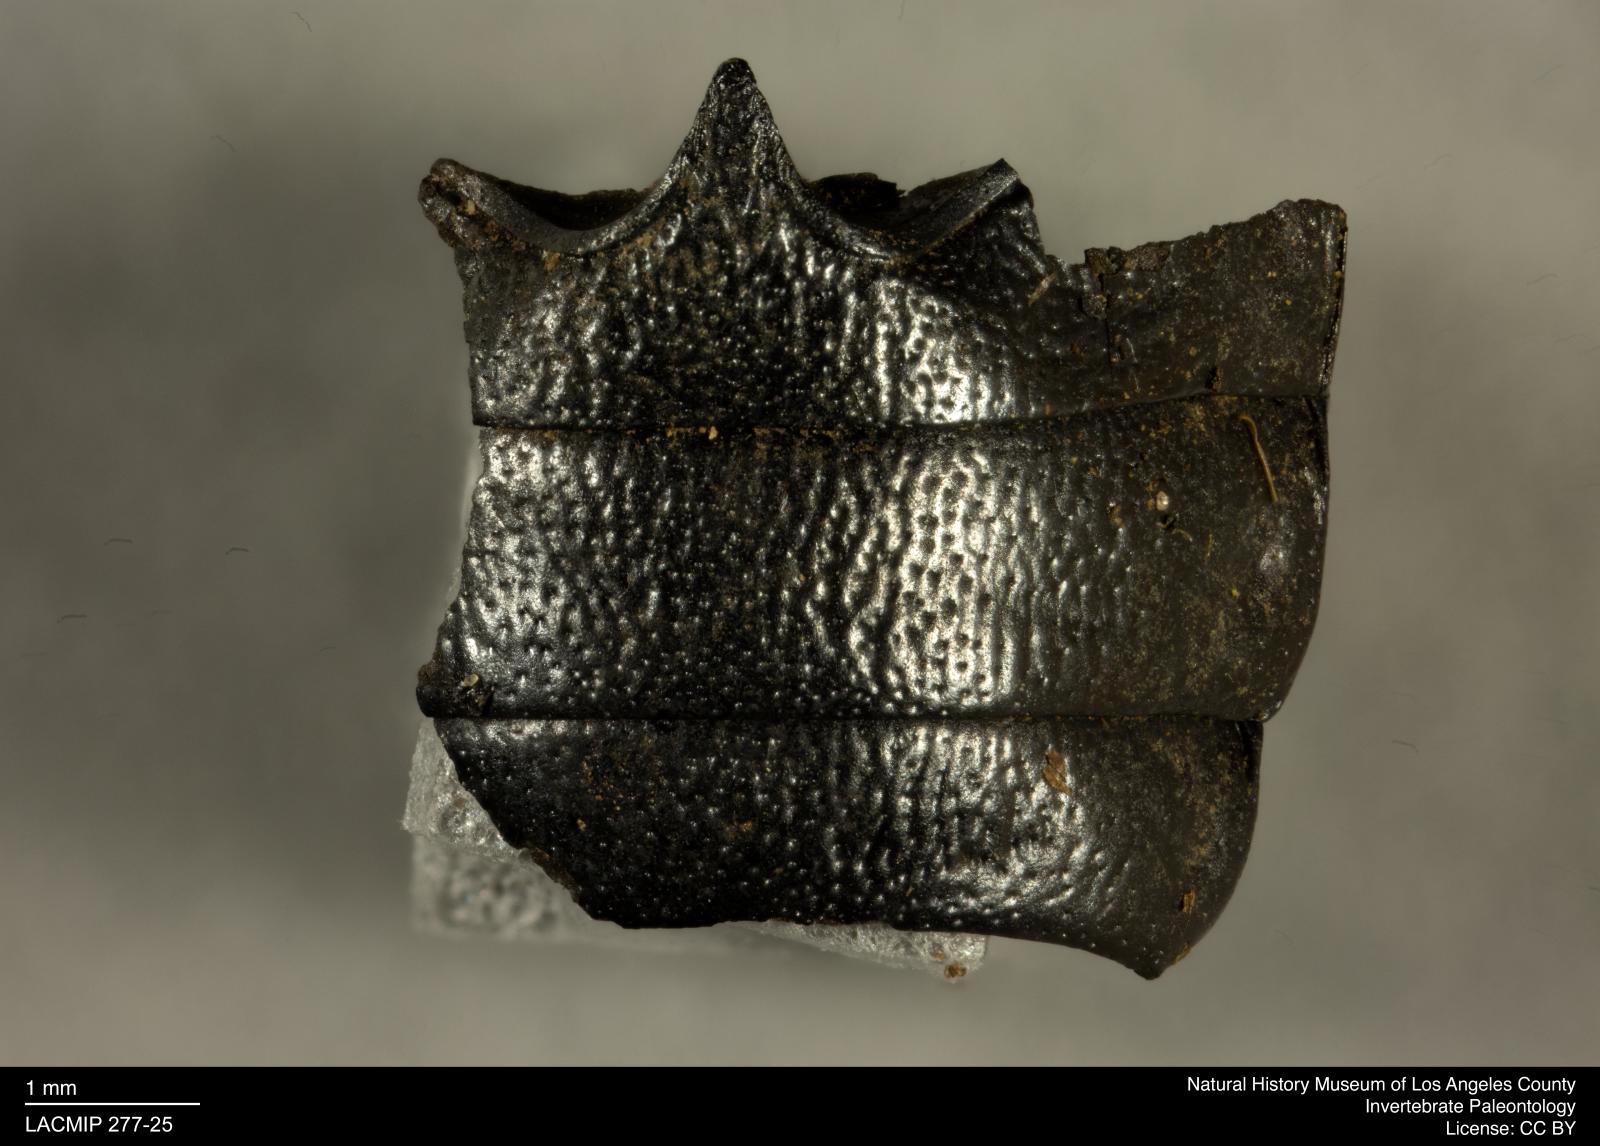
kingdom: Animalia
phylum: Arthropoda
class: Insecta
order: Coleoptera
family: Tenebrionidae
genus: Coniontis
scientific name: Coniontis abdominalis
